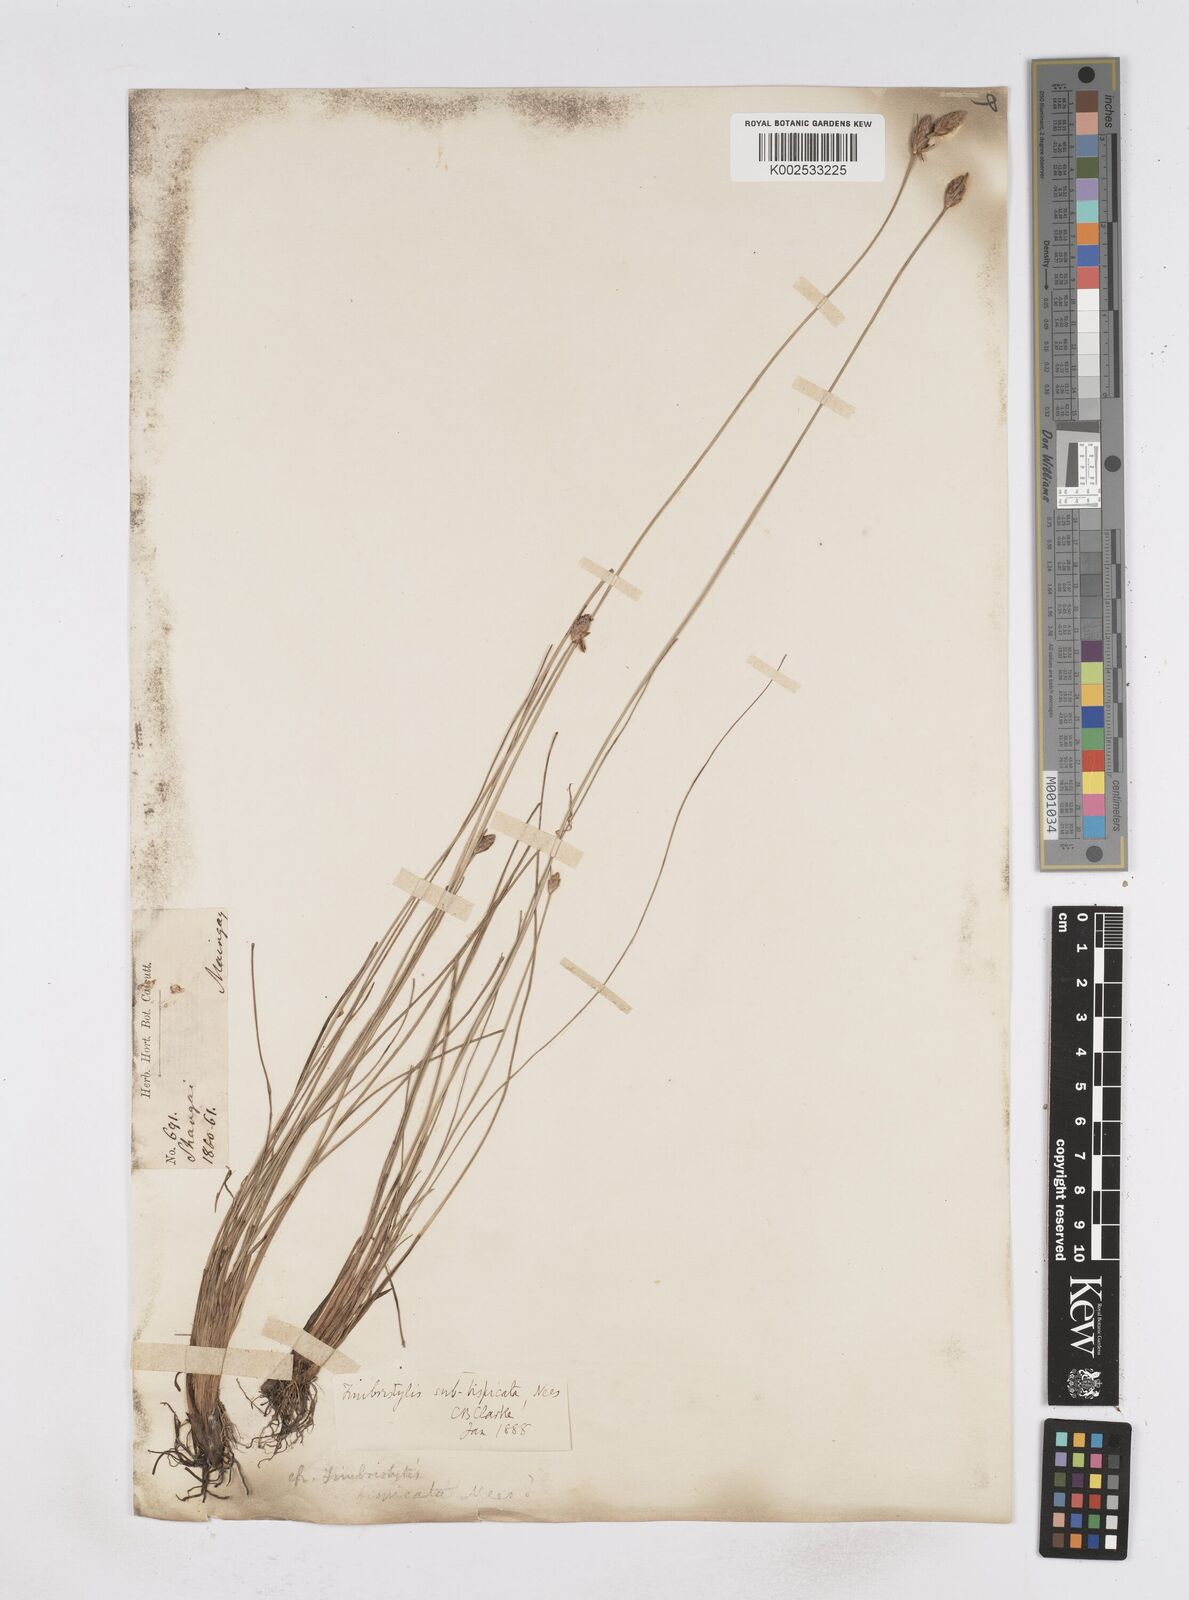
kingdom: Plantae
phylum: Tracheophyta
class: Liliopsida
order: Poales
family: Cyperaceae
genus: Fimbristylis
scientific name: Fimbristylis tristachya
